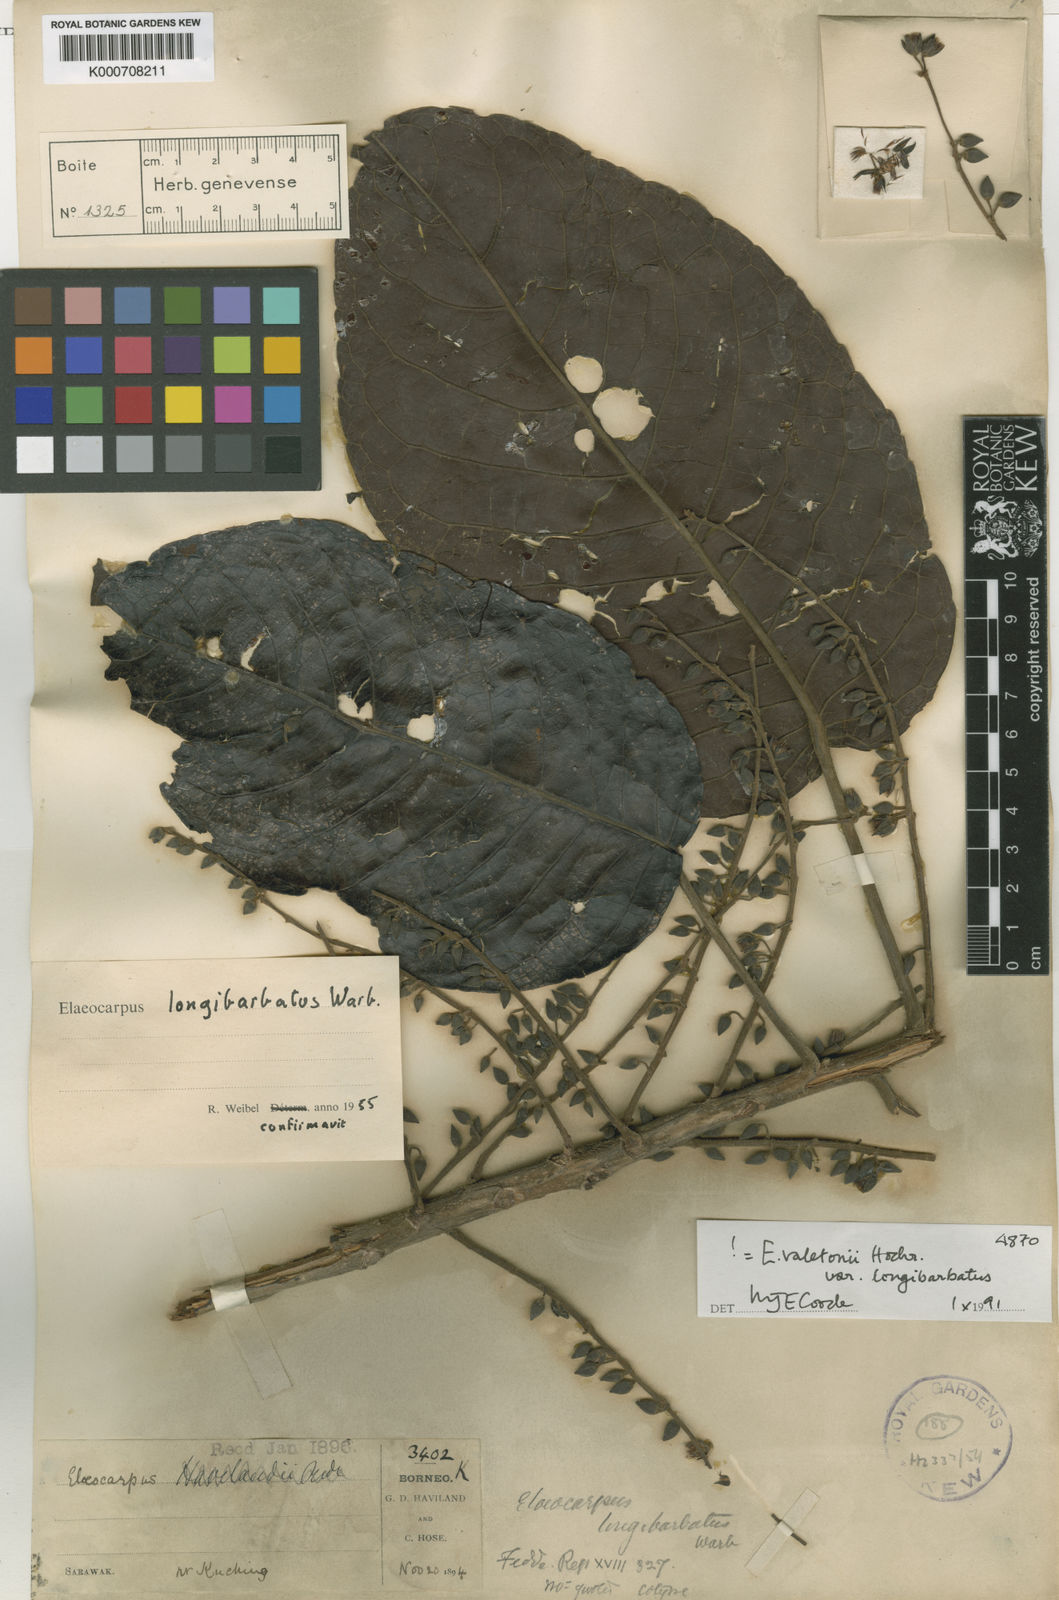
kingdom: Plantae
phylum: Tracheophyta
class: Magnoliopsida
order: Oxalidales
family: Elaeocarpaceae
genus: Elaeocarpus
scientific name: Elaeocarpus valetonii
